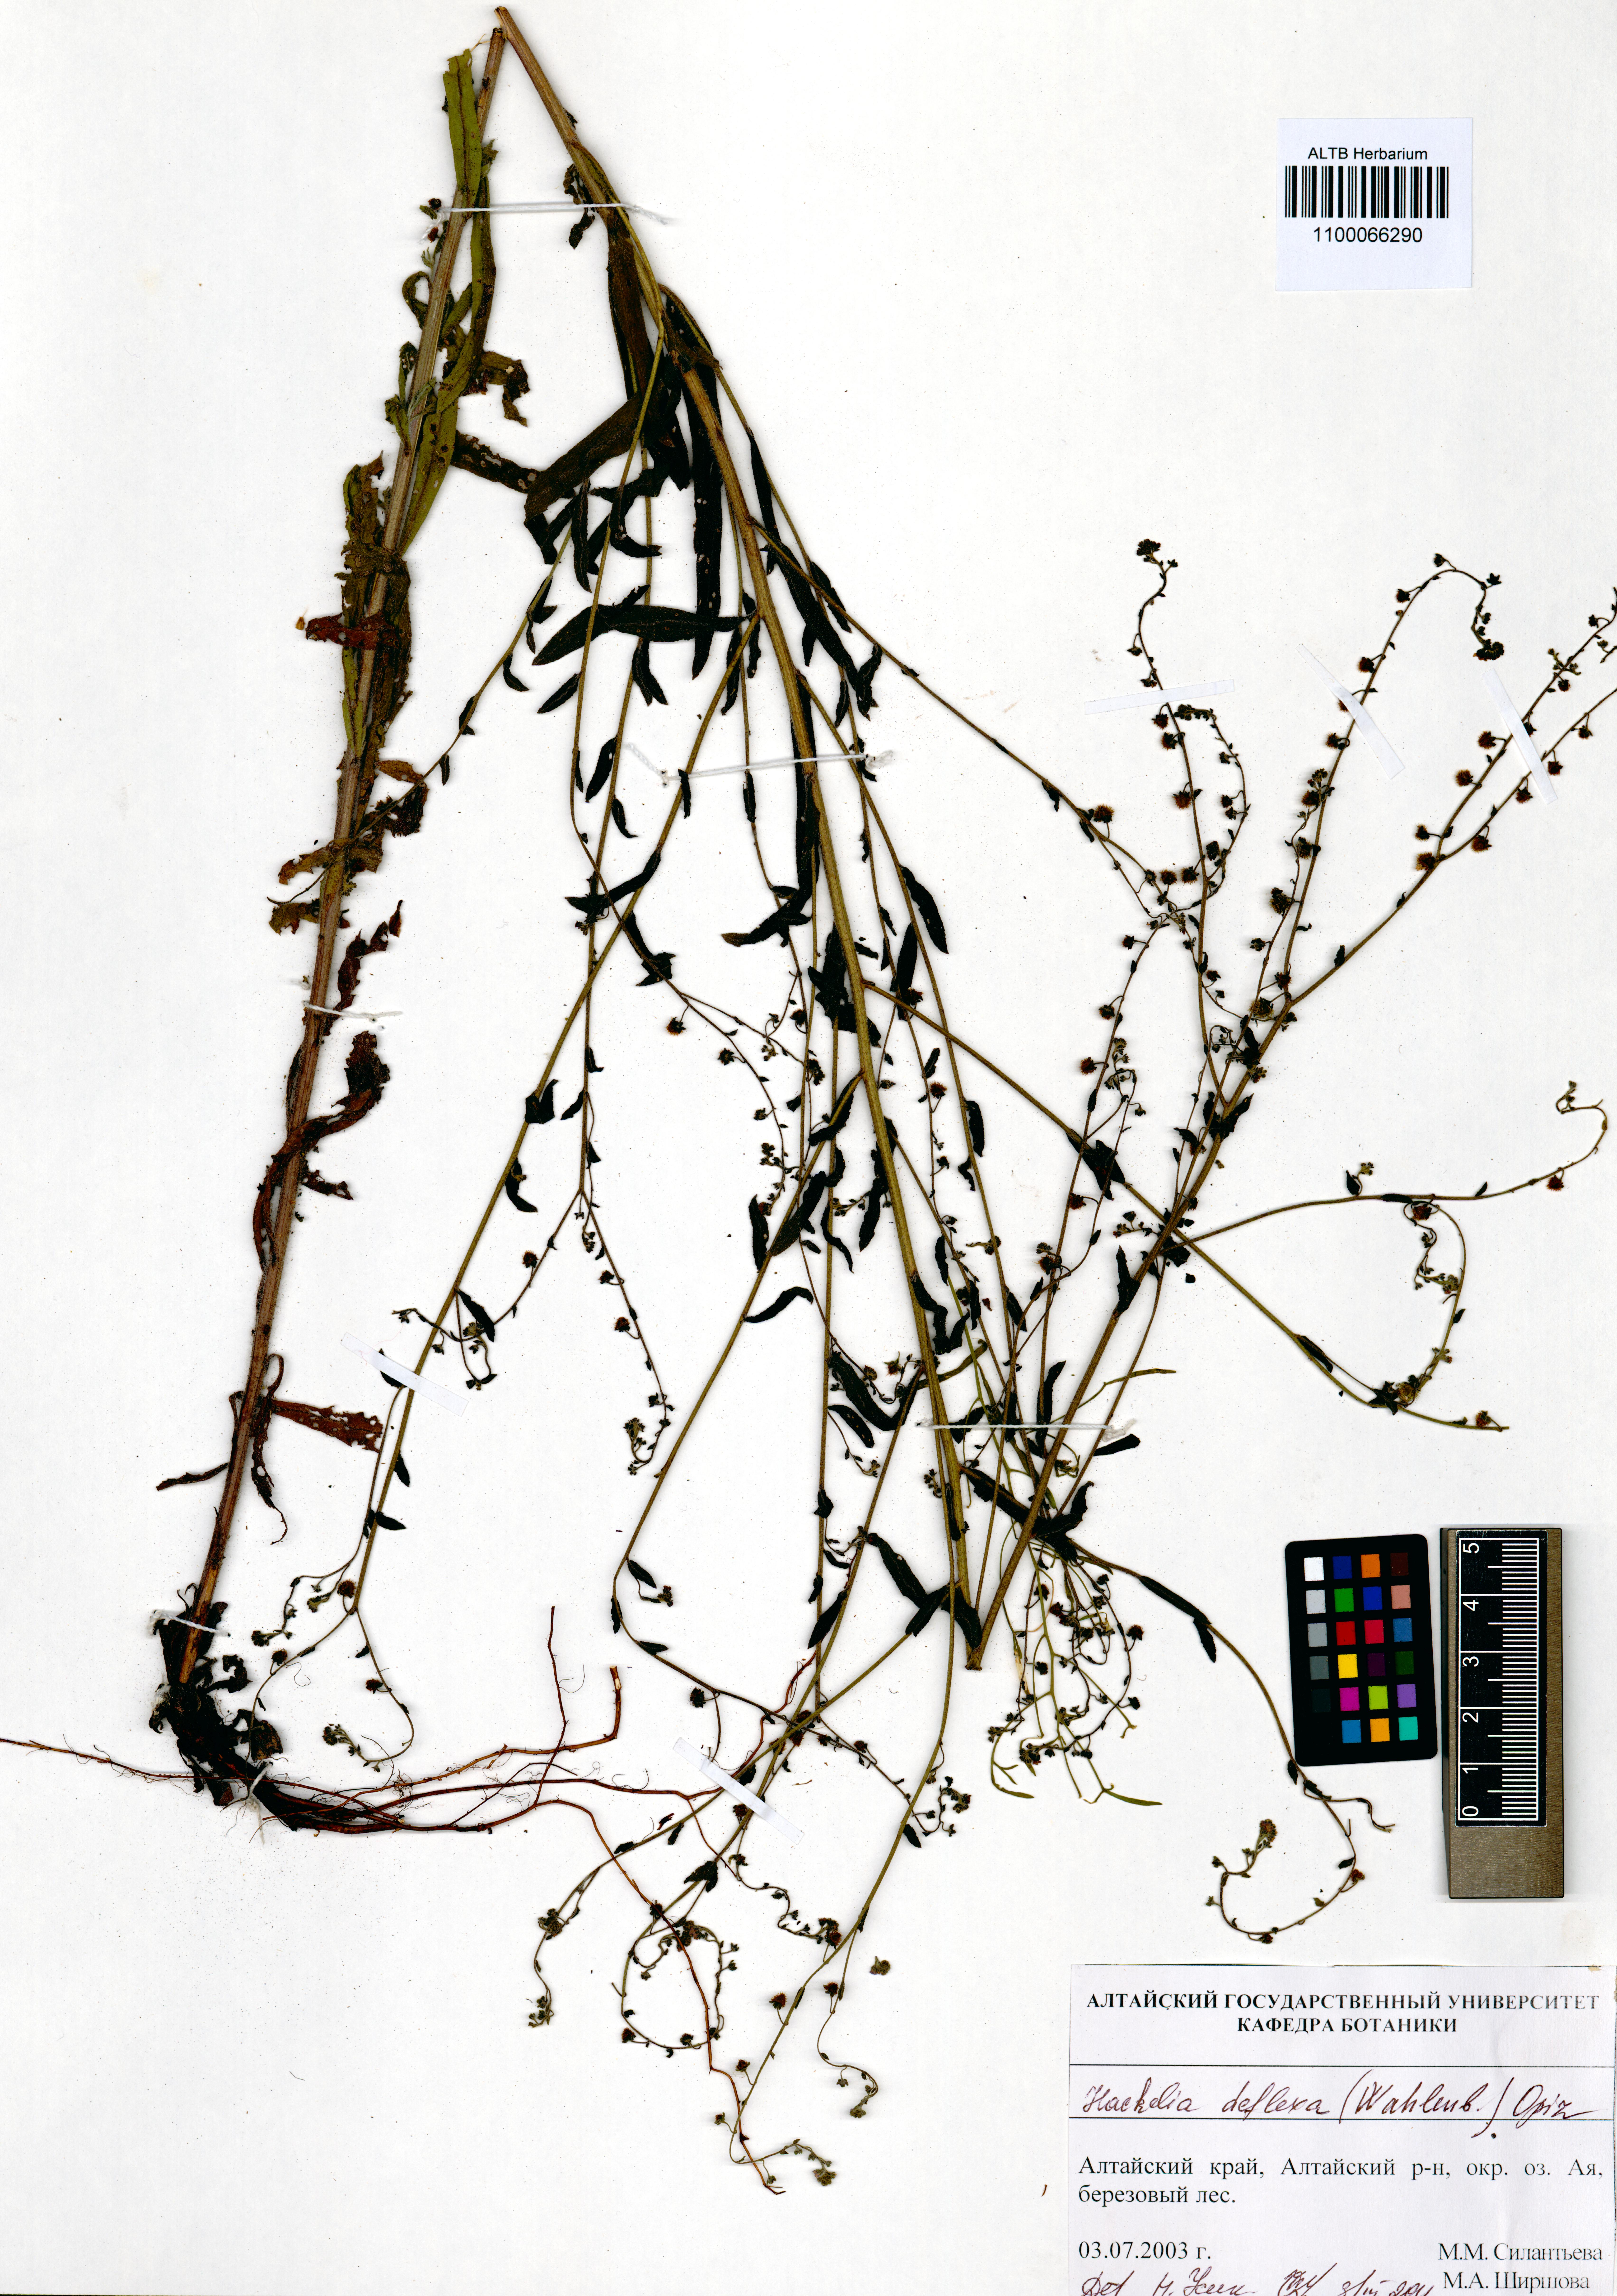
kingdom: Plantae
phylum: Tracheophyta
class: Magnoliopsida
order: Boraginales
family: Boraginaceae
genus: Hackelia
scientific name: Hackelia deflexa
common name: Nodding stickseed
